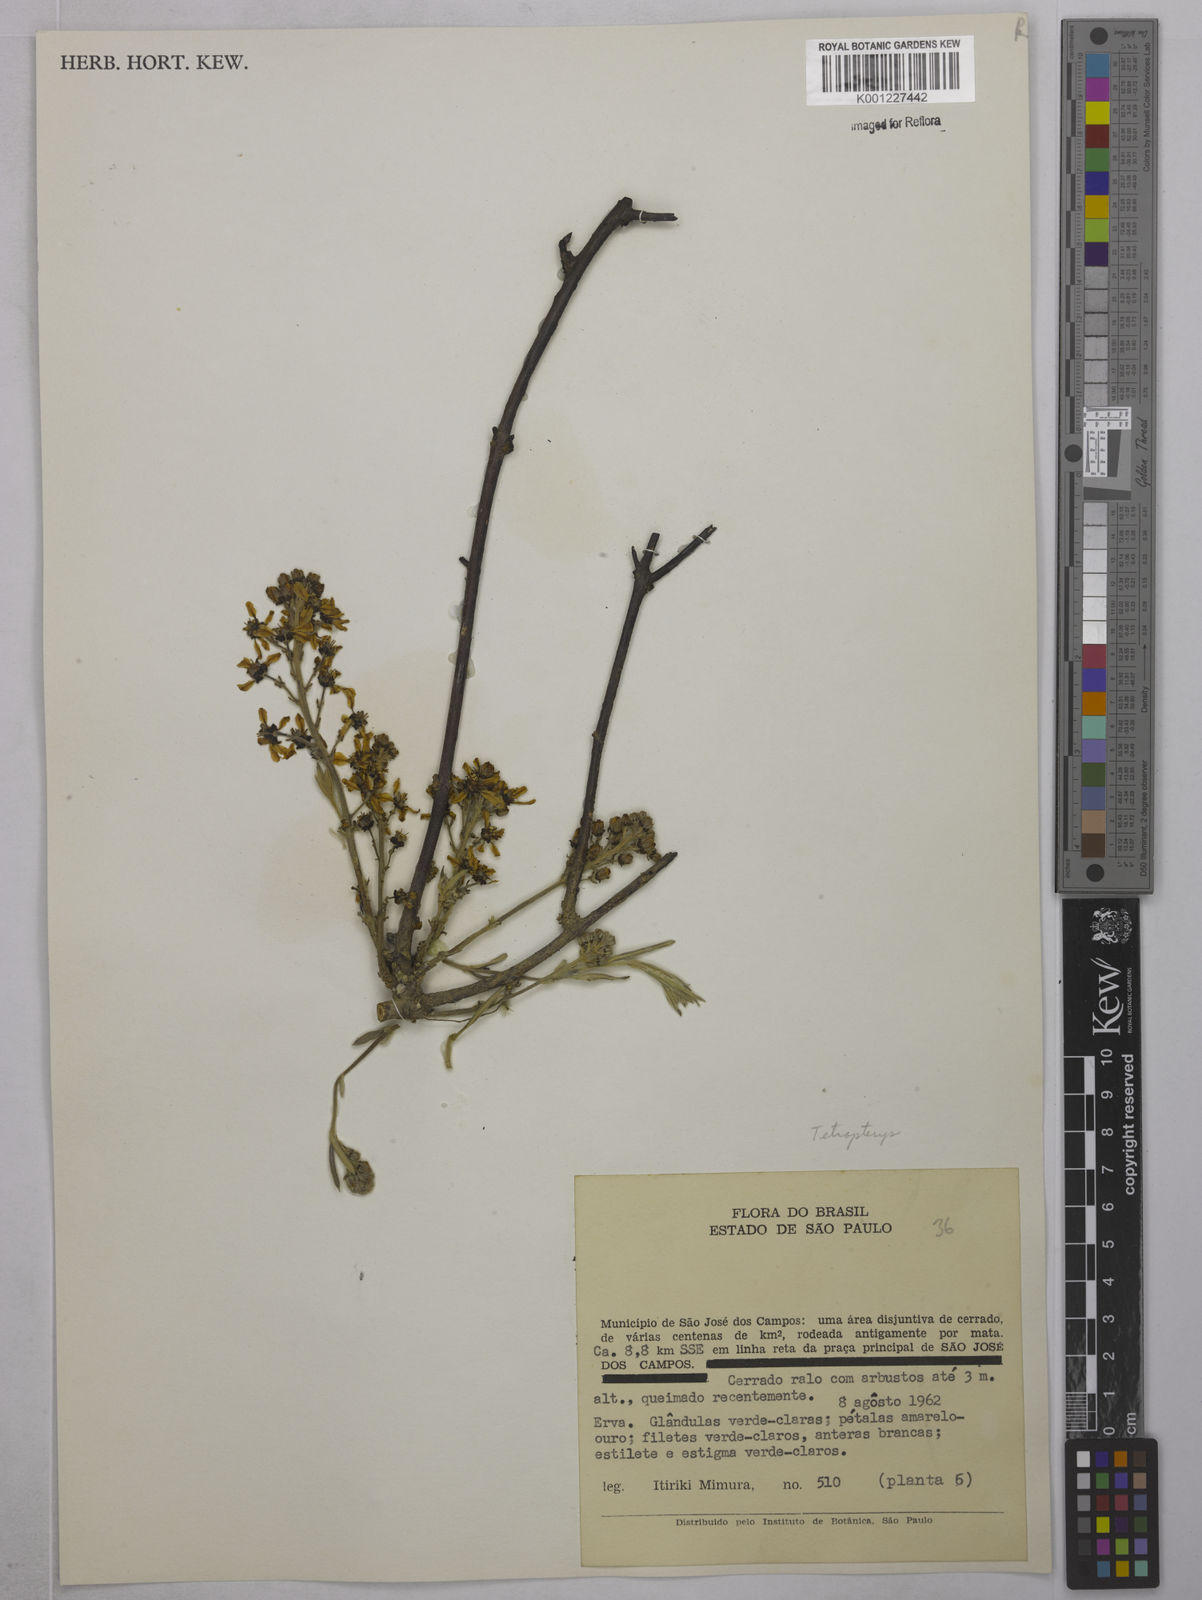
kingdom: Plantae
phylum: Tracheophyta
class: Magnoliopsida
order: Malpighiales
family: Malpighiaceae
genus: Tetrapterys
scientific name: Tetrapterys
